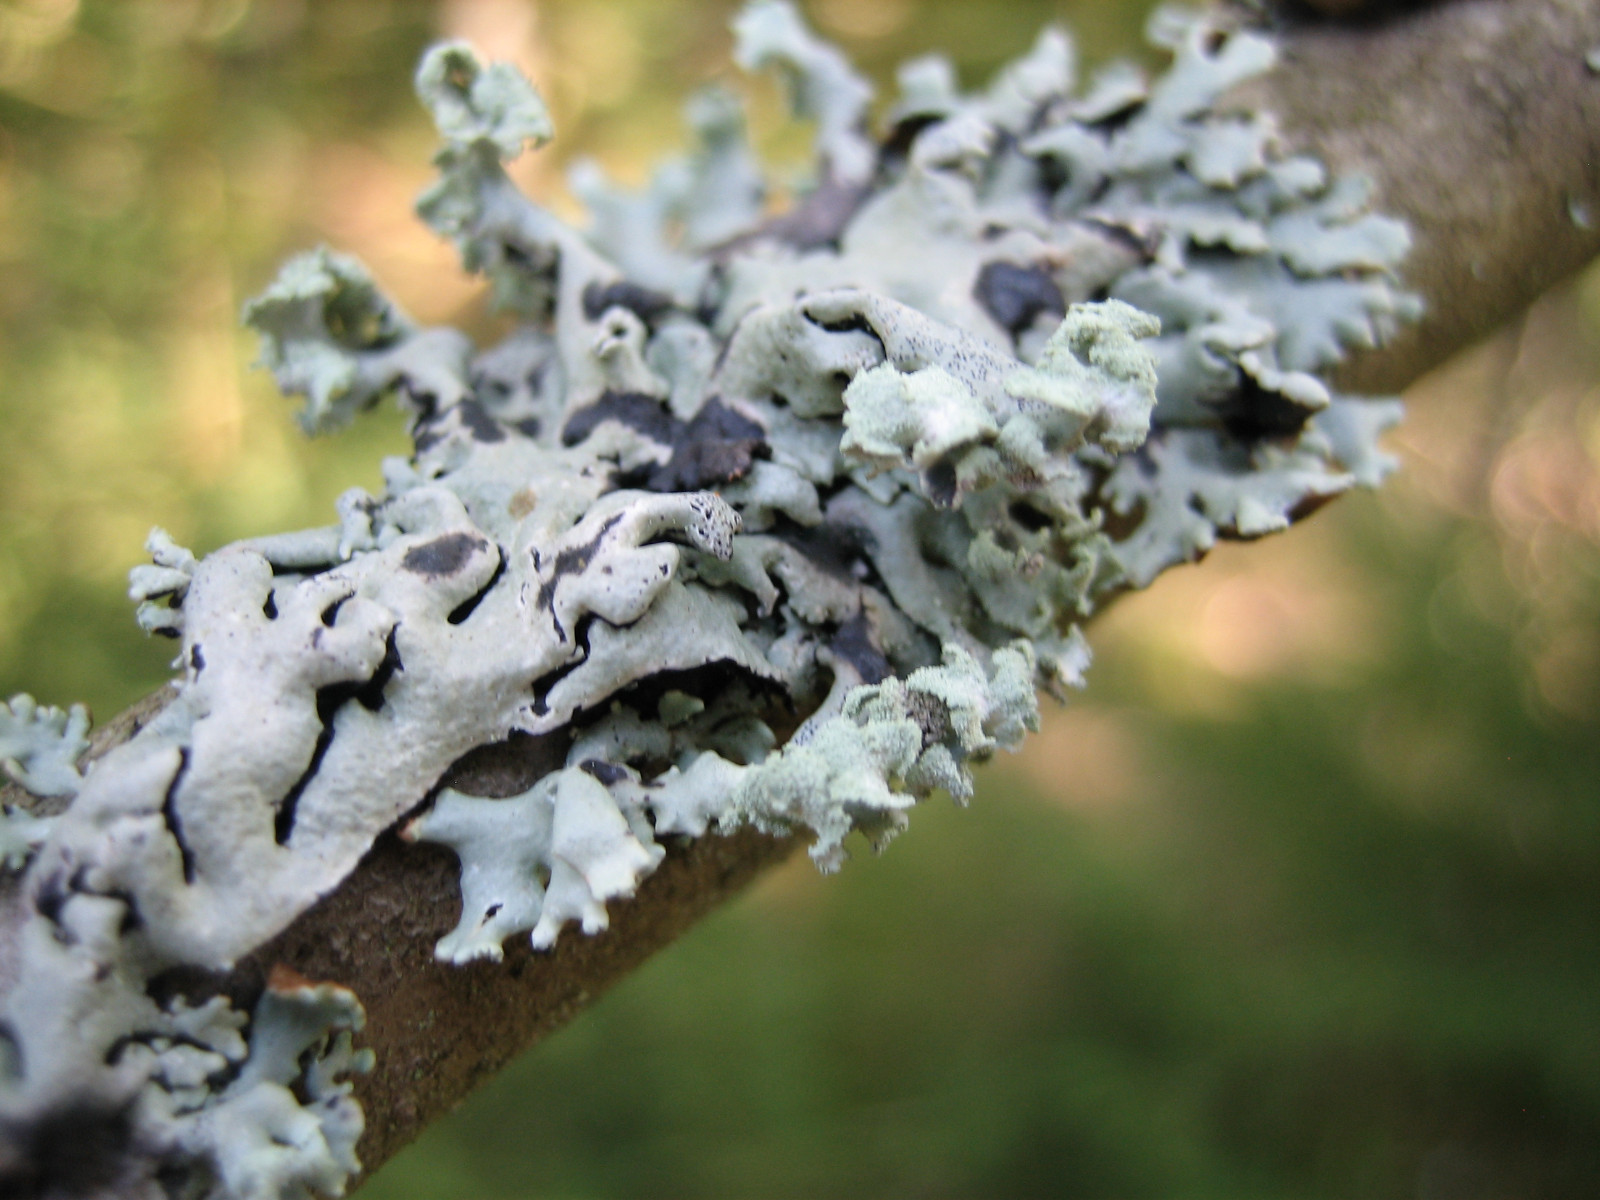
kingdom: Fungi
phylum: Ascomycota
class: Lecanoromycetes
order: Lecanorales
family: Parmeliaceae
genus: Hypogymnia
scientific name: Hypogymnia physodes
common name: almindelig kvistlav
